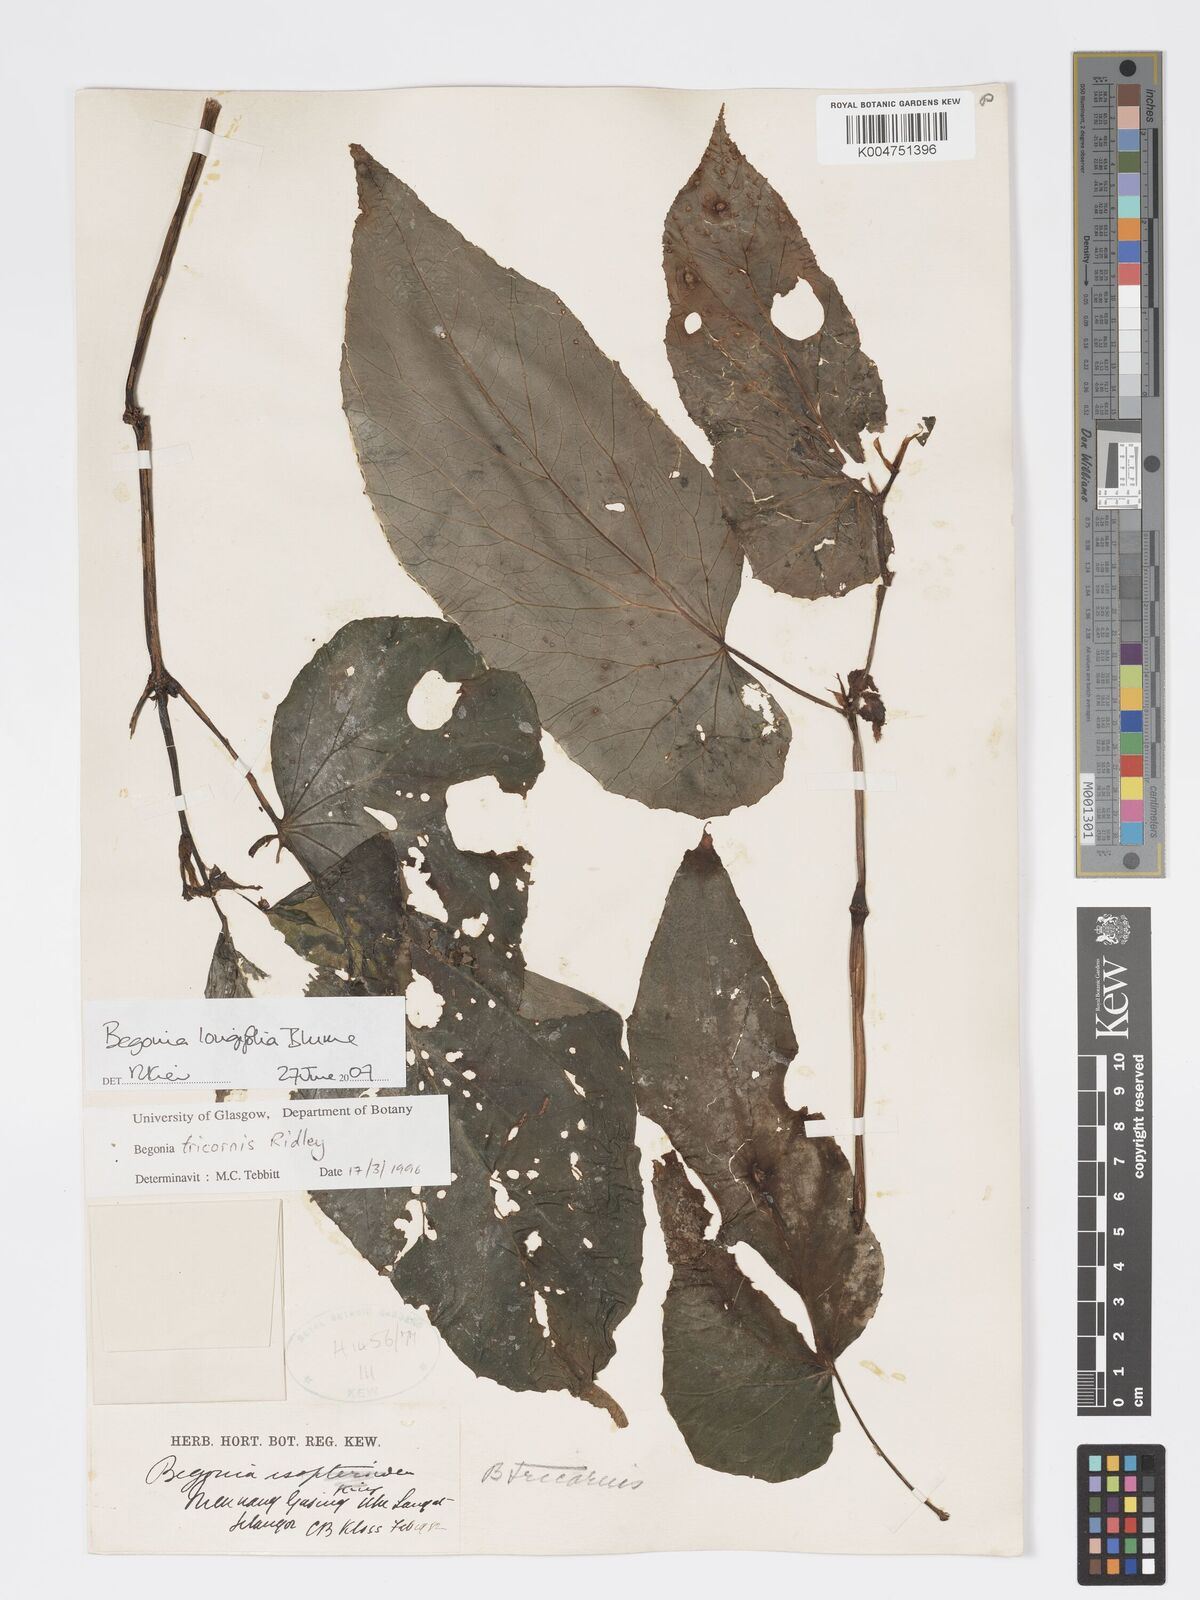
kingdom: Plantae
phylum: Tracheophyta
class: Magnoliopsida
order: Cucurbitales
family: Begoniaceae
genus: Begonia
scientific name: Begonia longifolia
